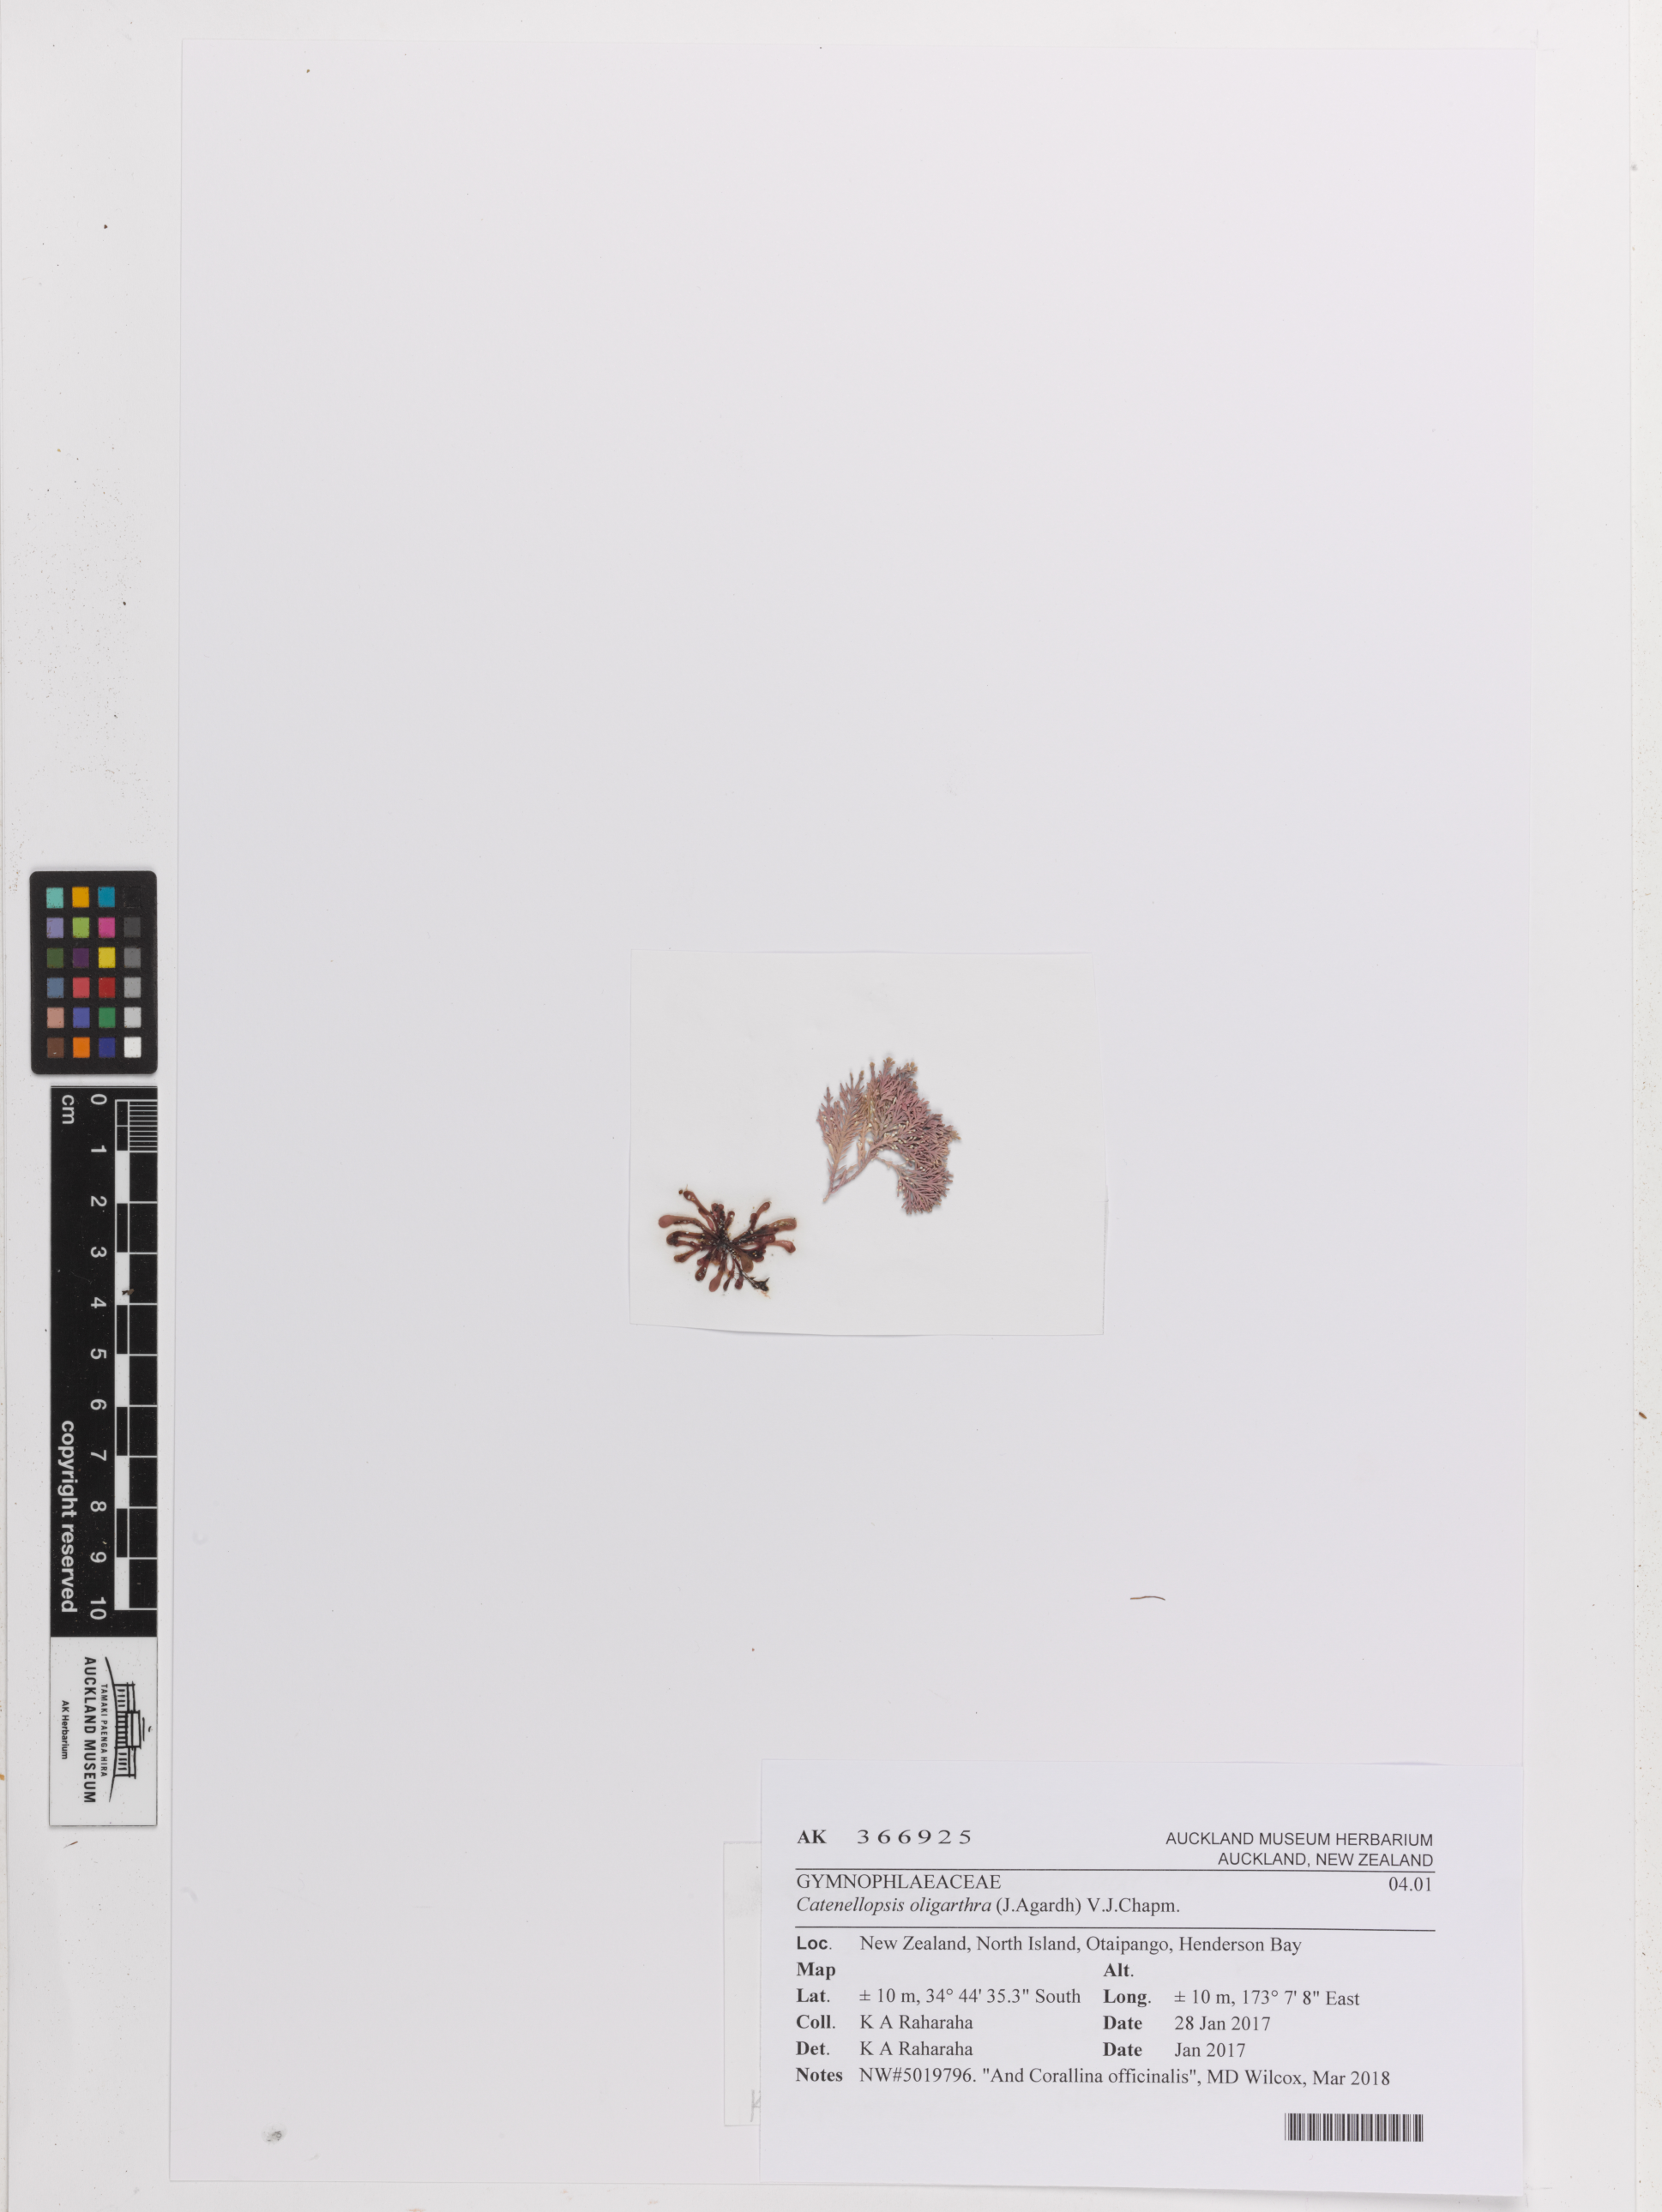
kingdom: Plantae
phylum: Rhodophyta
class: Florideophyceae
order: Gigartinales
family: Catenellopsidaceae
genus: Catenellopsis
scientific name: Catenellopsis oligarthra
